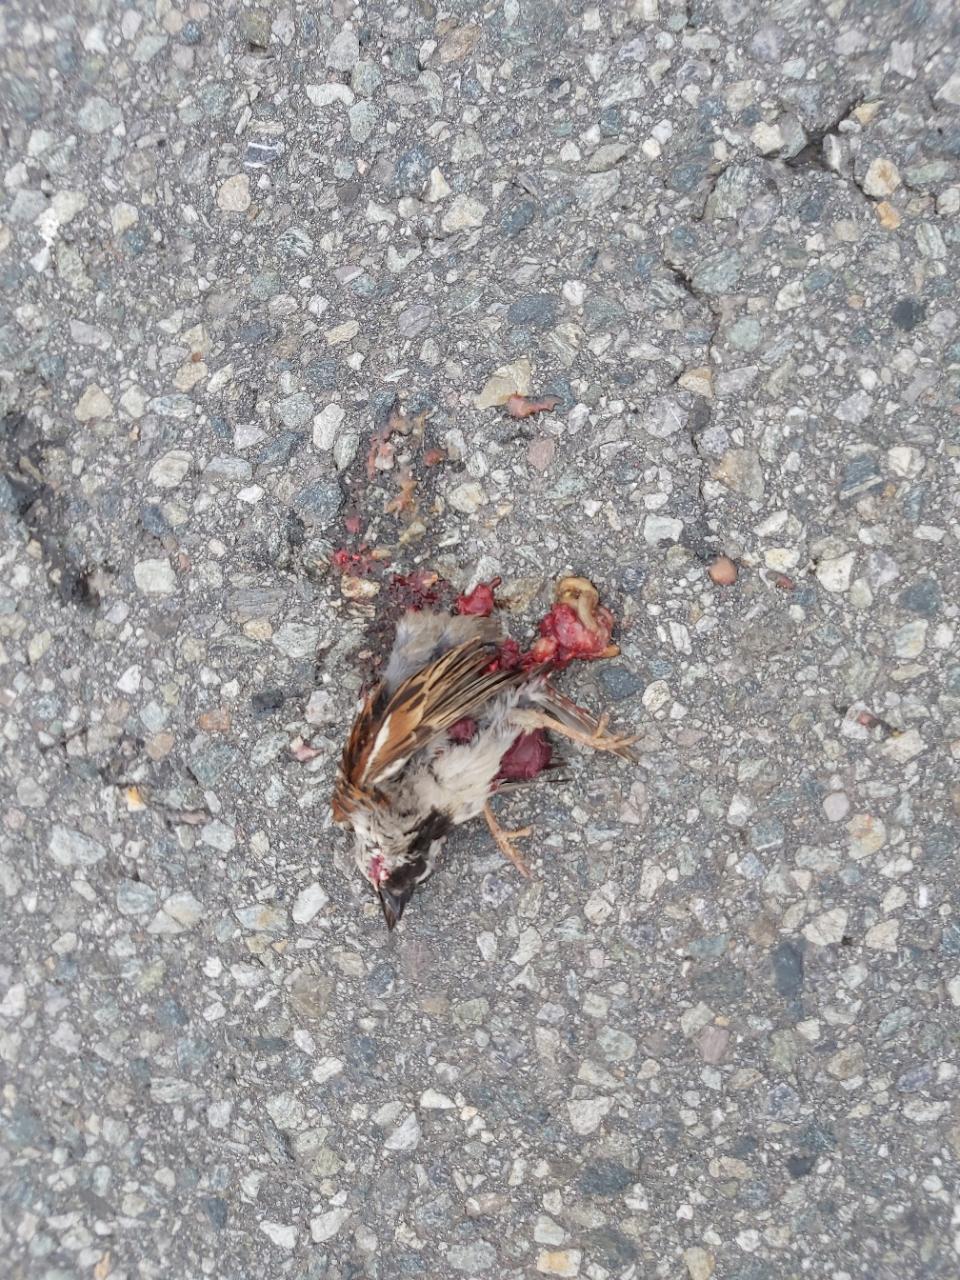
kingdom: Animalia
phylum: Chordata
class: Aves
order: Passeriformes
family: Passeridae
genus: Passer
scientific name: Passer
